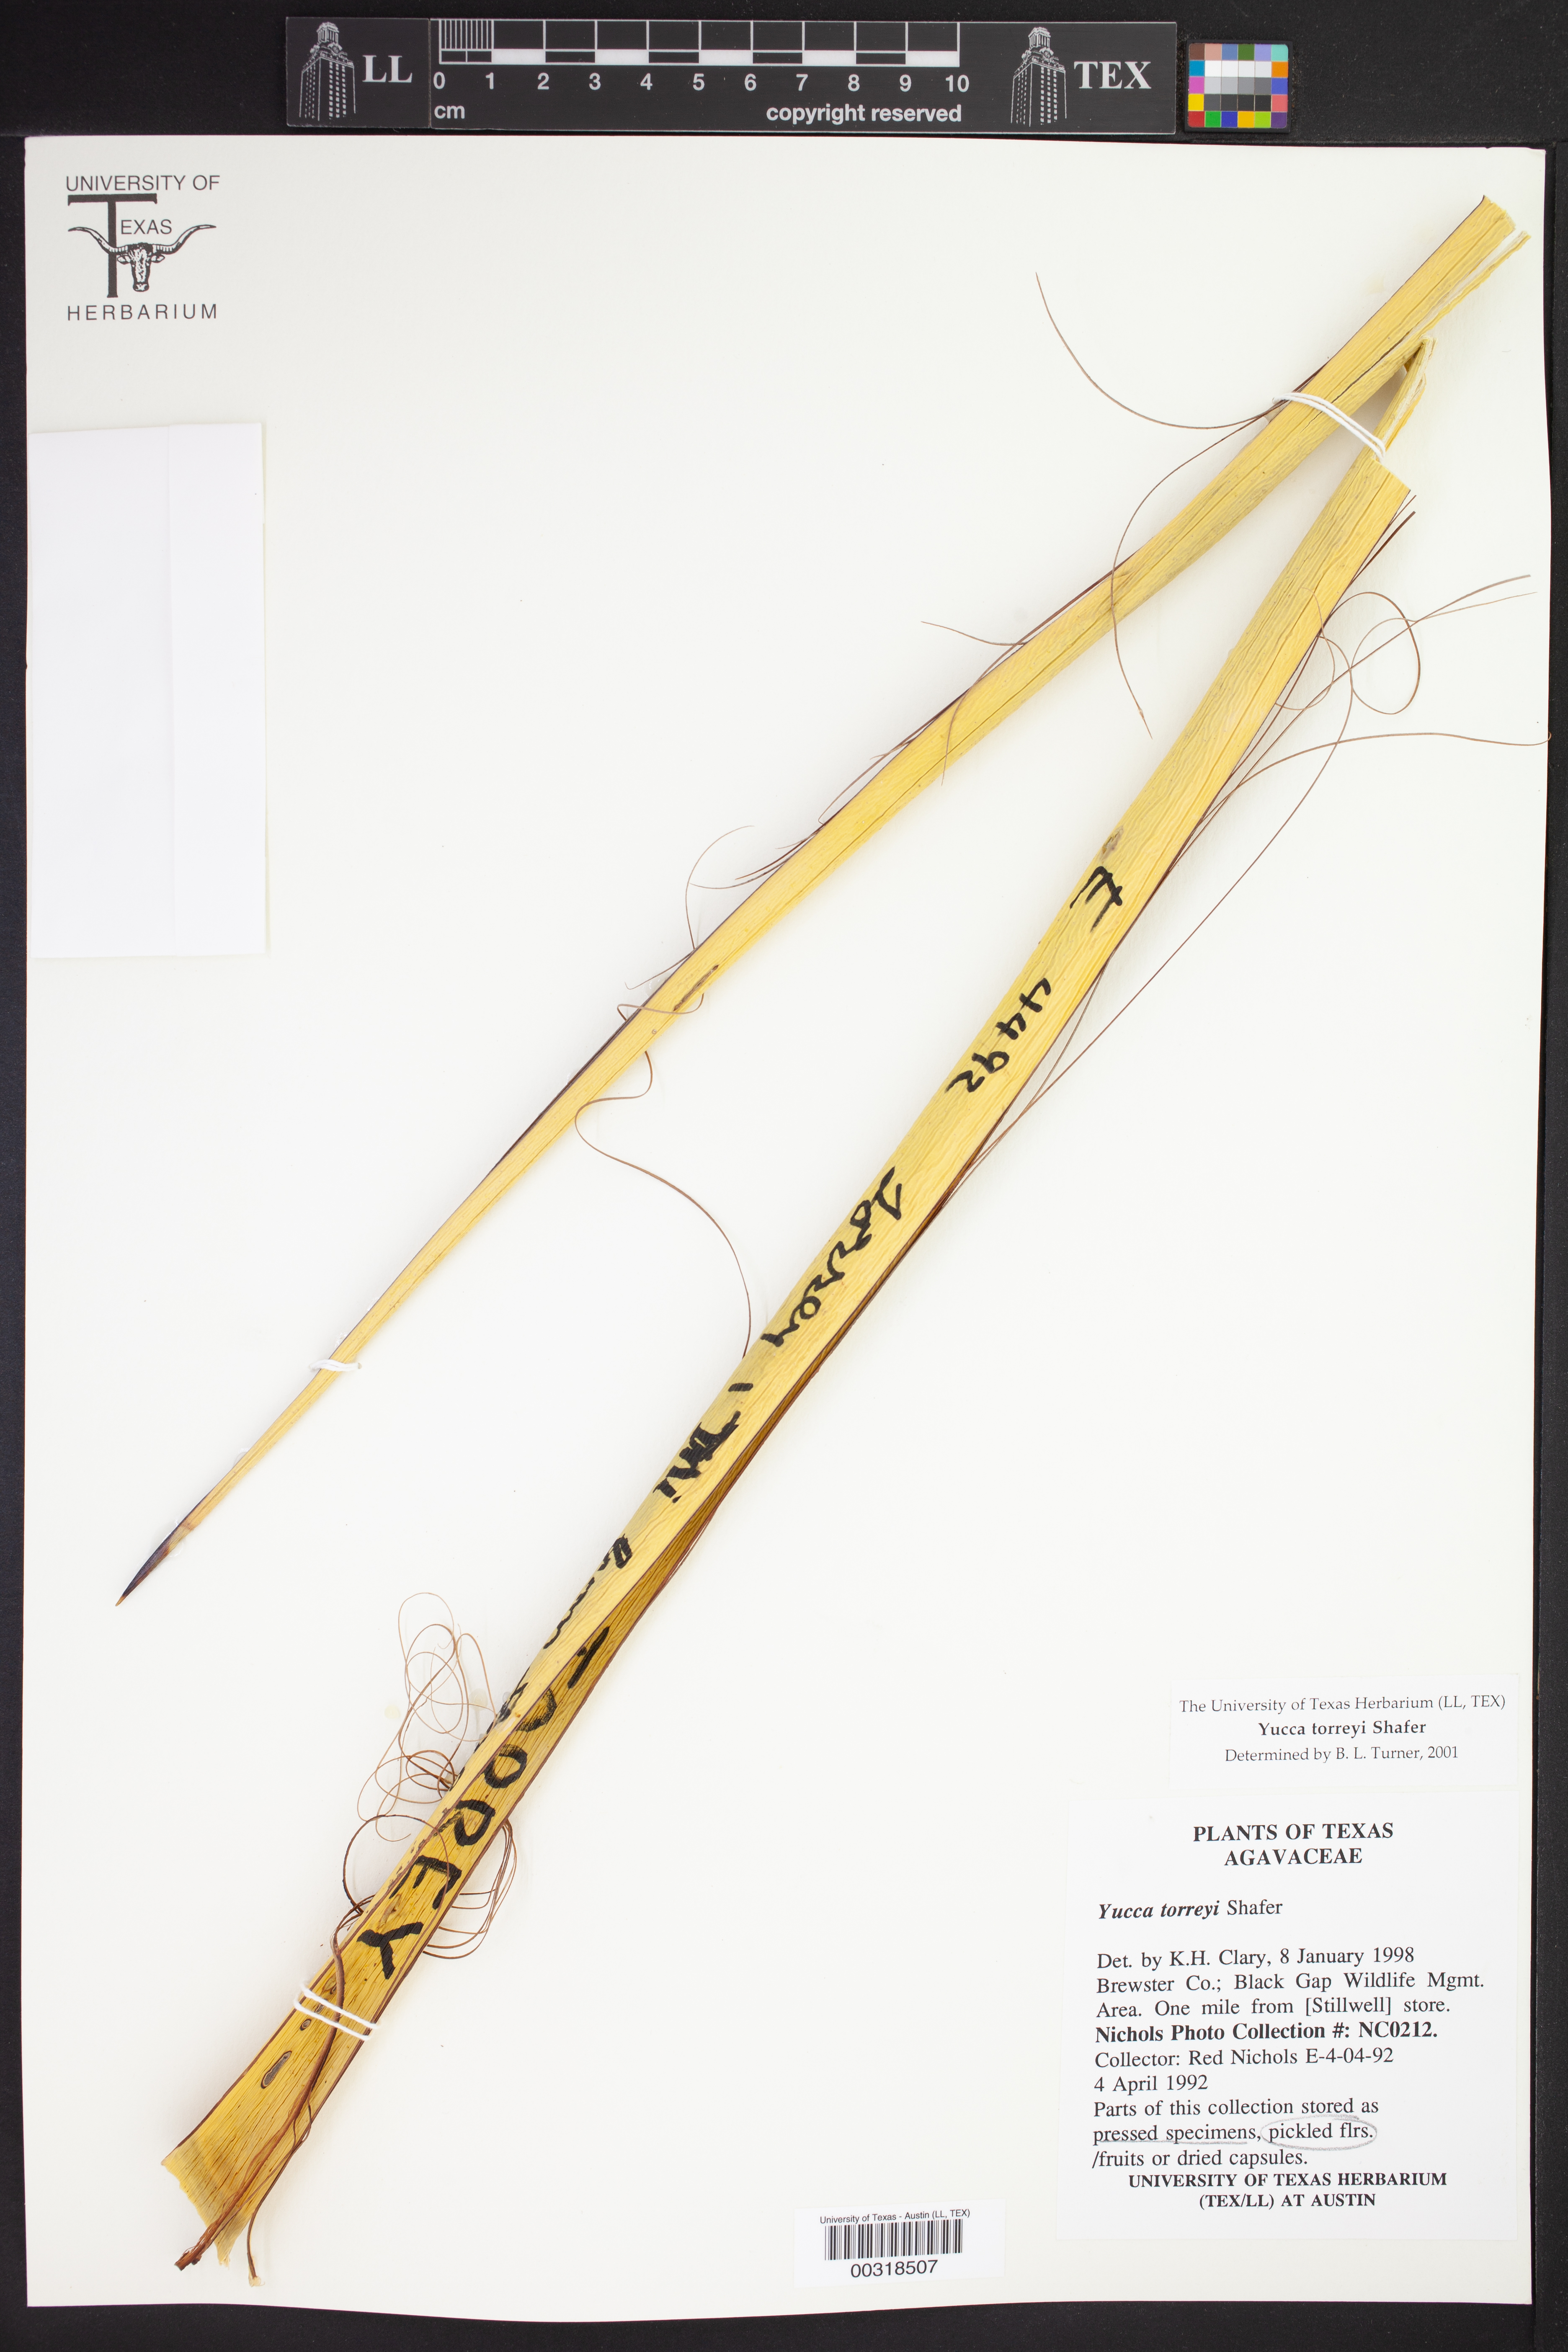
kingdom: Plantae
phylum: Tracheophyta
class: Liliopsida
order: Asparagales
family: Asparagaceae
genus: Yucca
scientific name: Yucca treculiana
